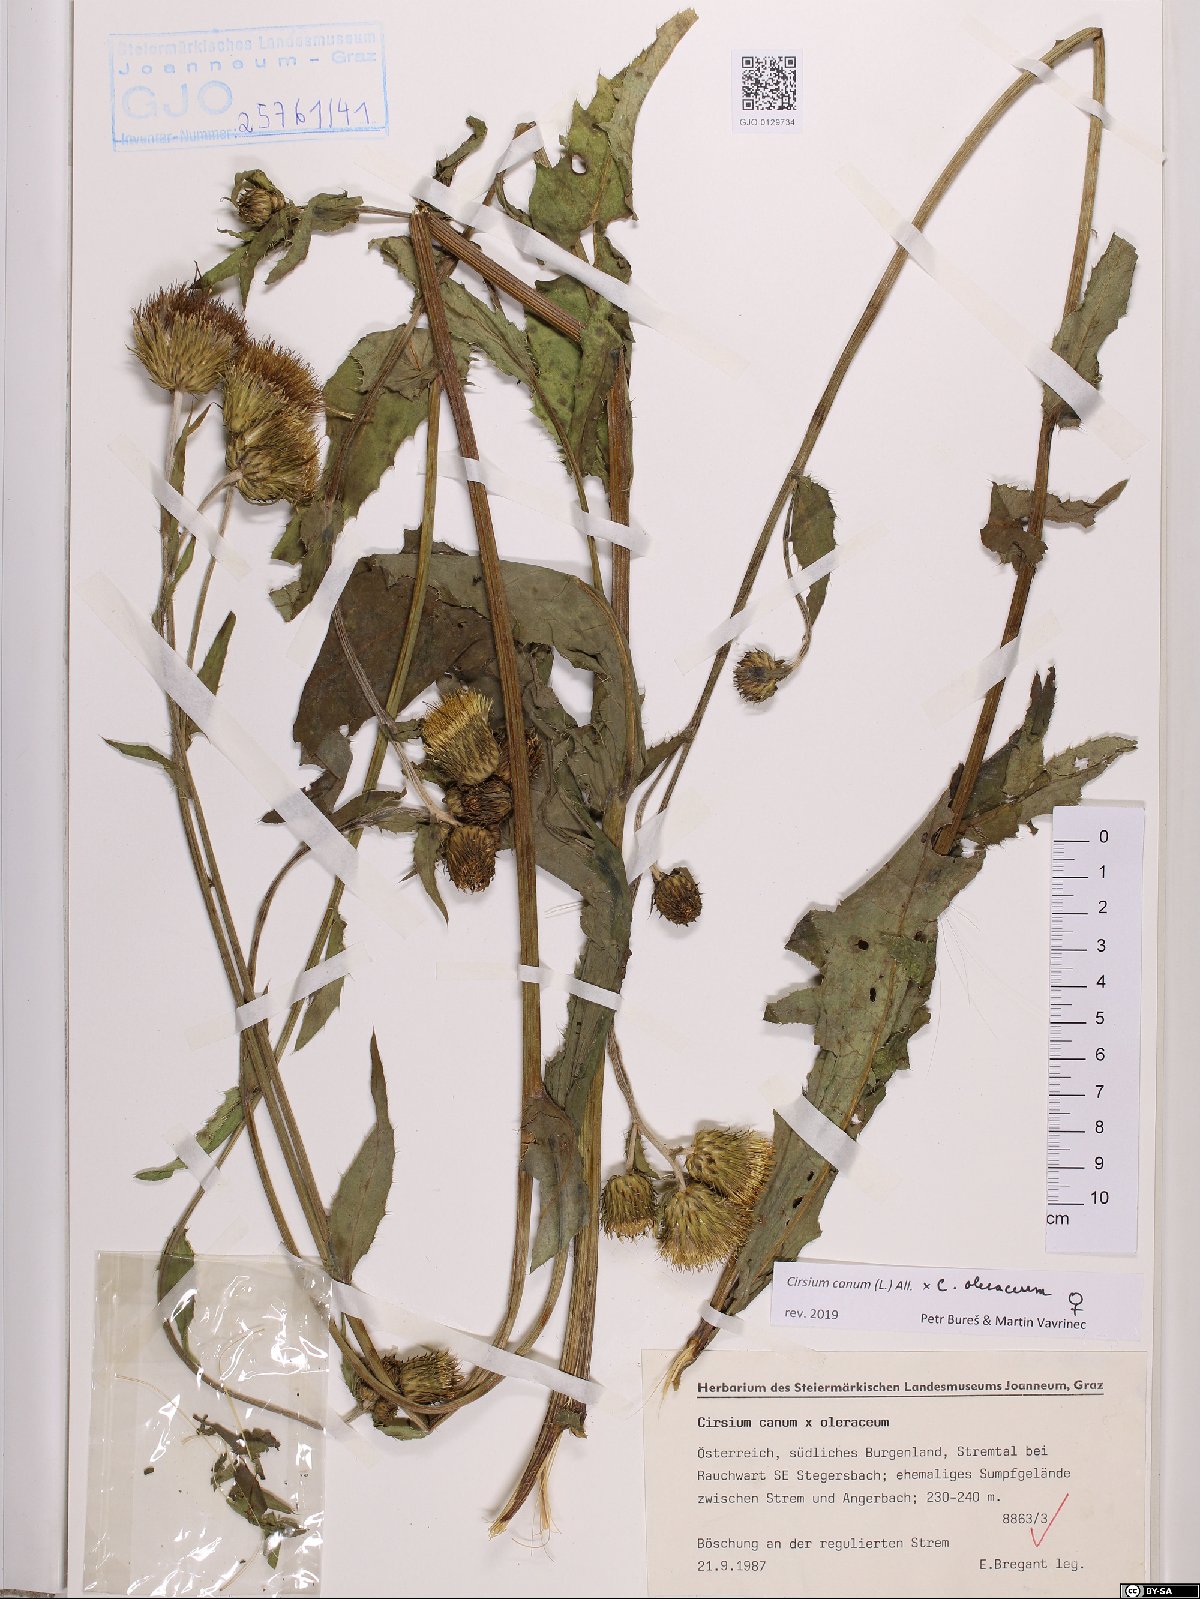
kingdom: Plantae
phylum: Tracheophyta
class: Magnoliopsida
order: Asterales
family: Asteraceae
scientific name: Asteraceae
